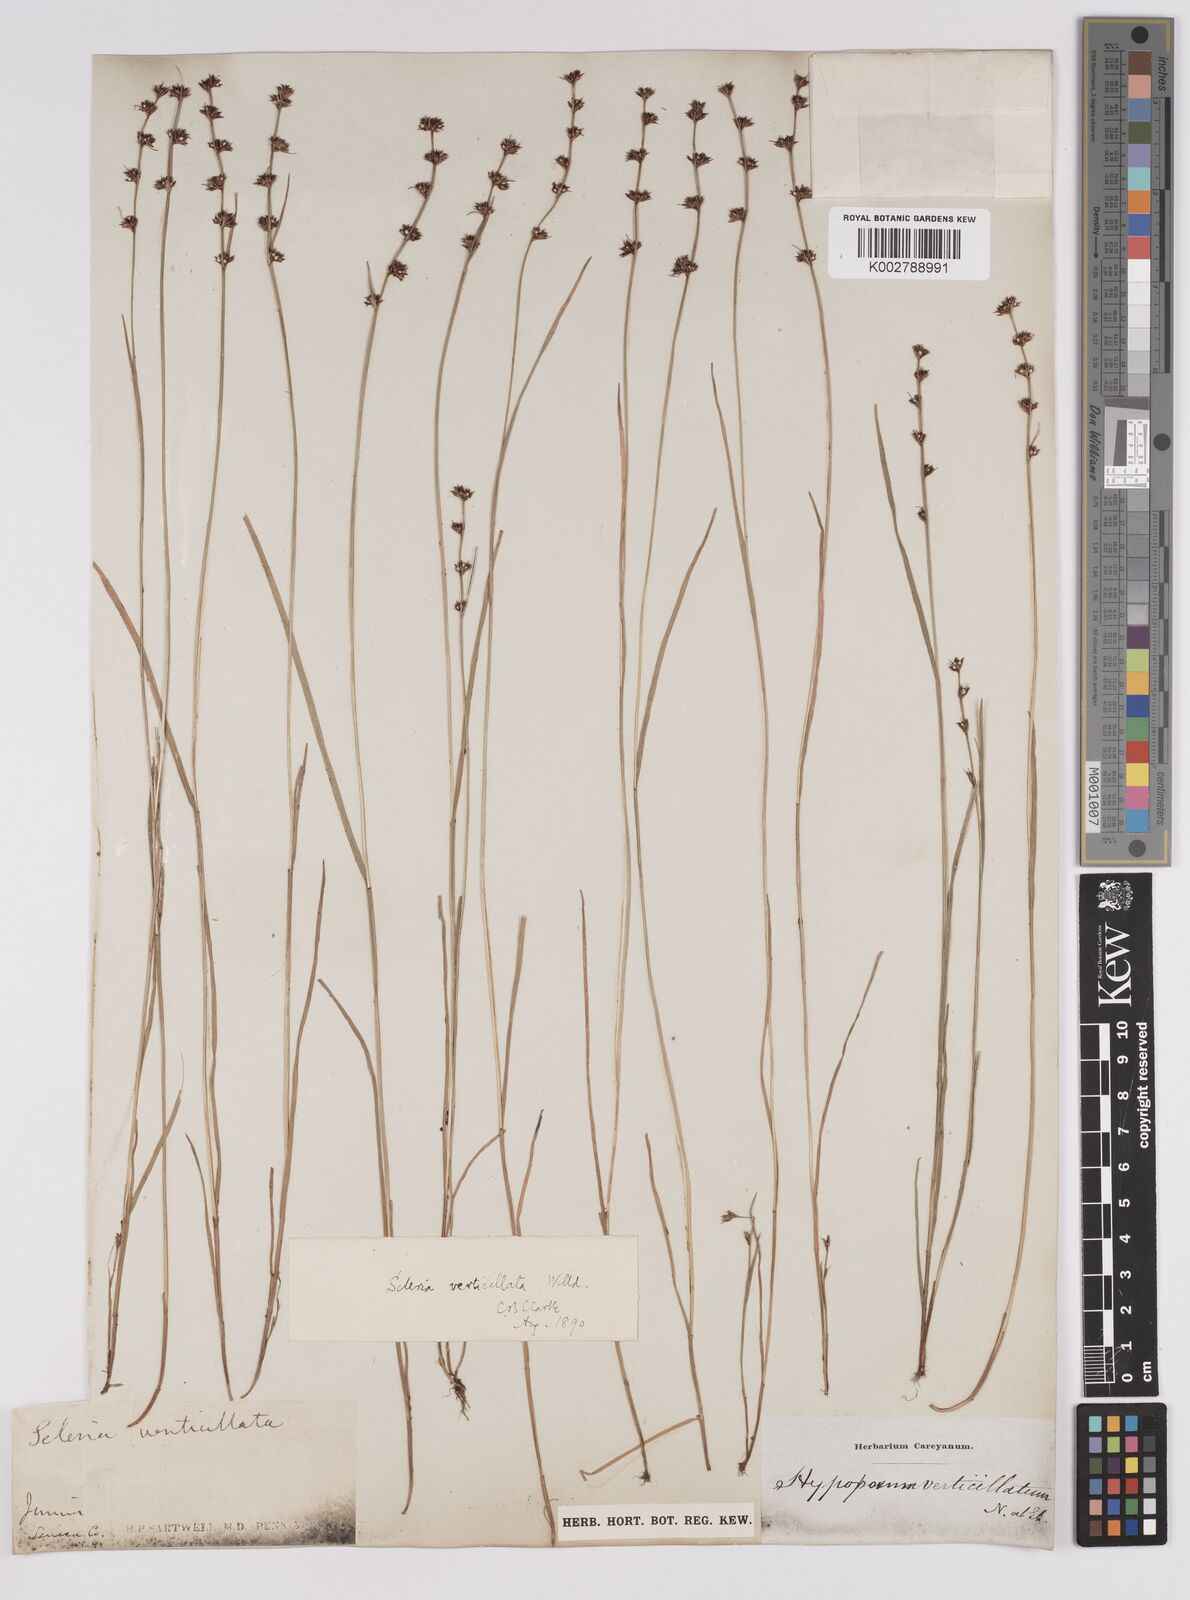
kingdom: Plantae
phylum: Tracheophyta
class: Liliopsida
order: Poales
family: Cyperaceae
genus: Scleria
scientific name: Scleria verticillata
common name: Low nutrush
